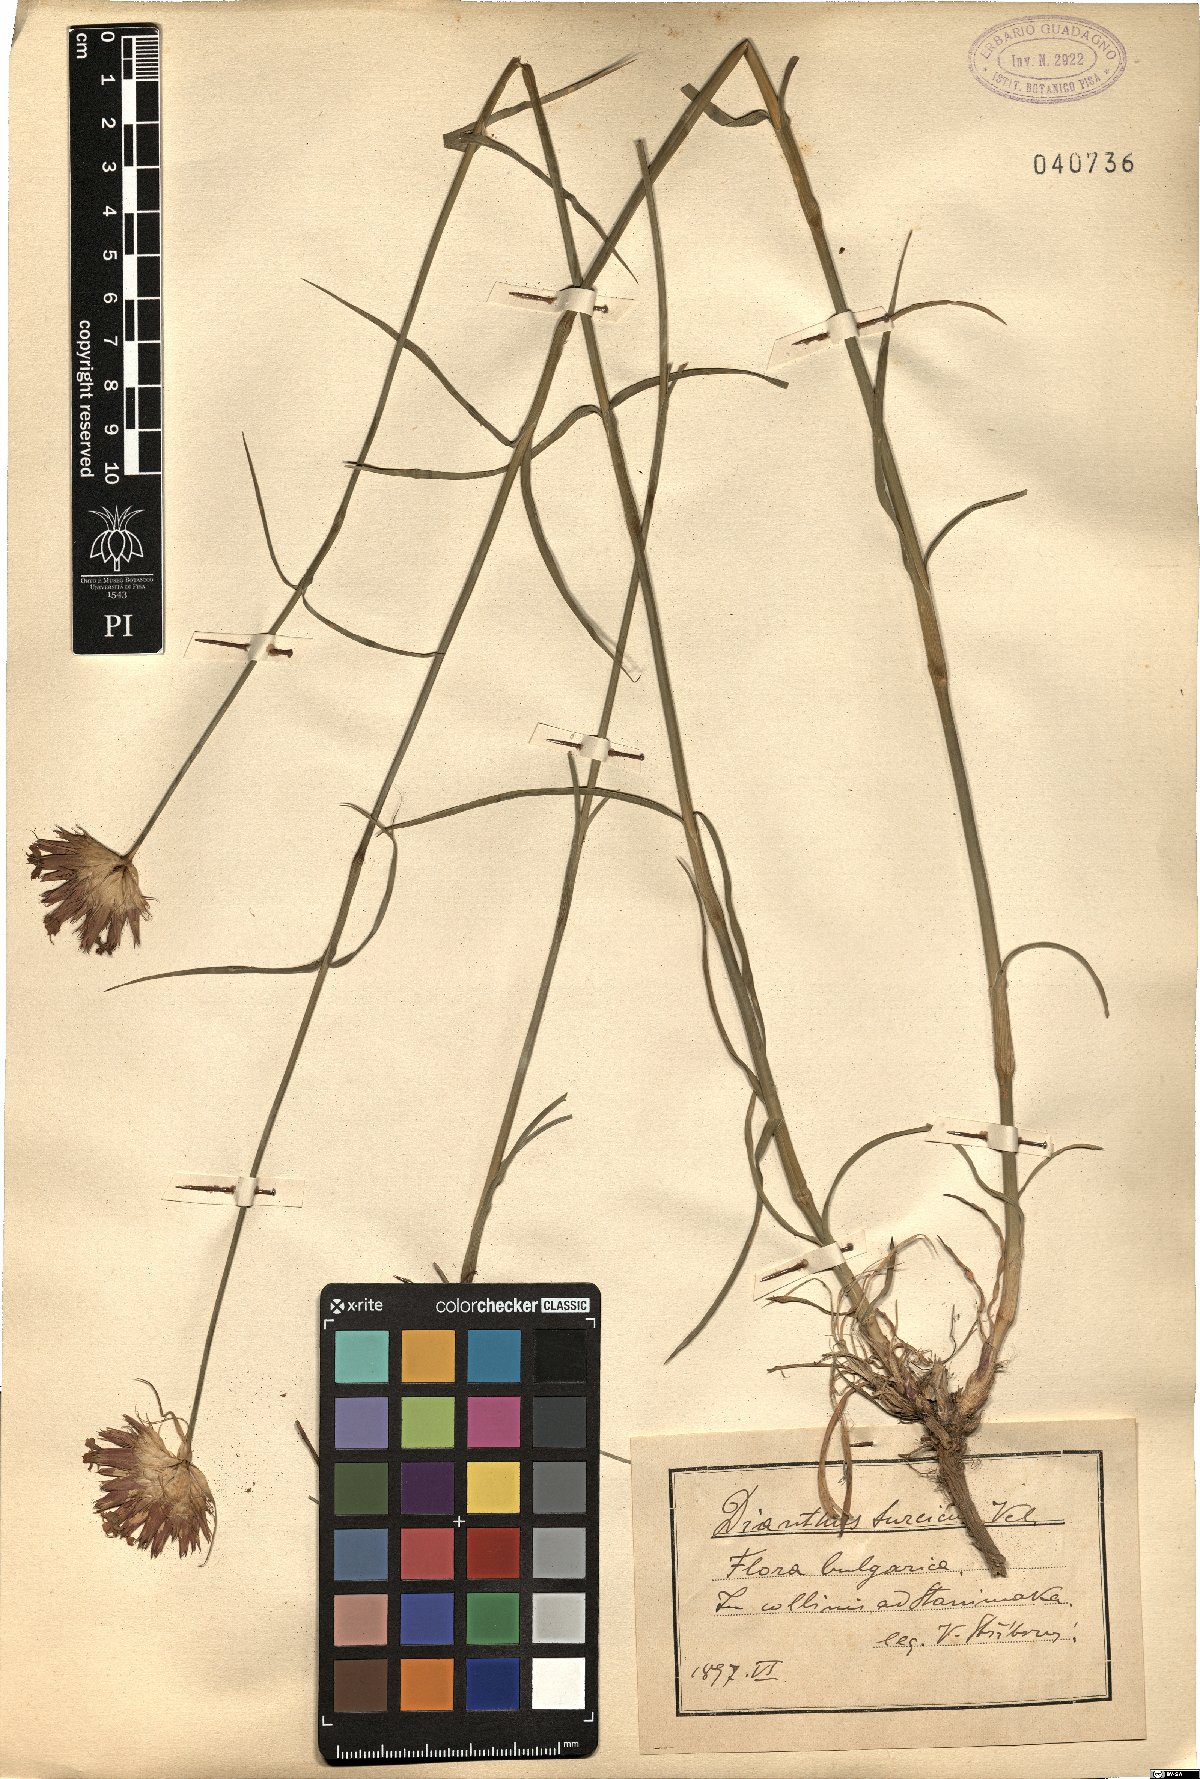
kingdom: Plantae
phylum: Tracheophyta
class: Magnoliopsida
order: Caryophyllales
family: Caryophyllaceae
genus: Dianthus
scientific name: Dianthus cruentus
